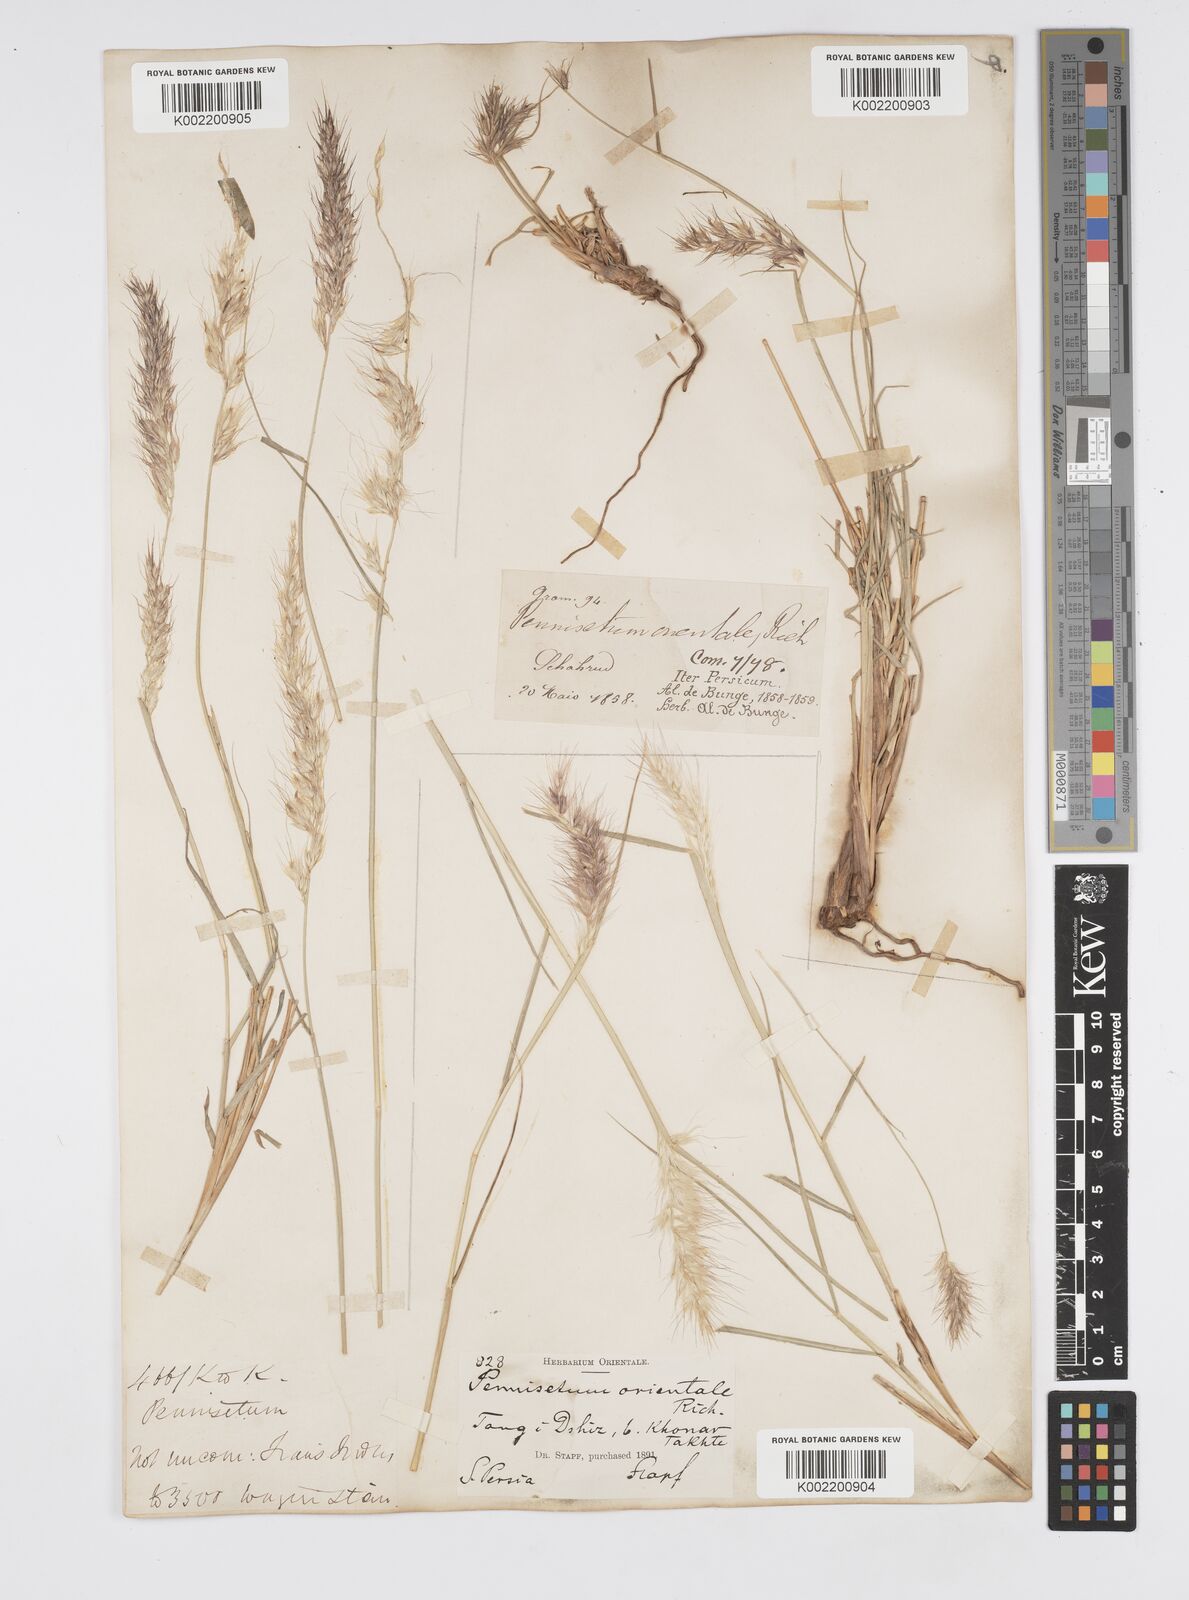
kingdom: Plantae
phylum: Tracheophyta
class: Liliopsida
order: Poales
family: Poaceae
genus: Cenchrus
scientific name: Cenchrus orientalis
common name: Oriental fountain grass
